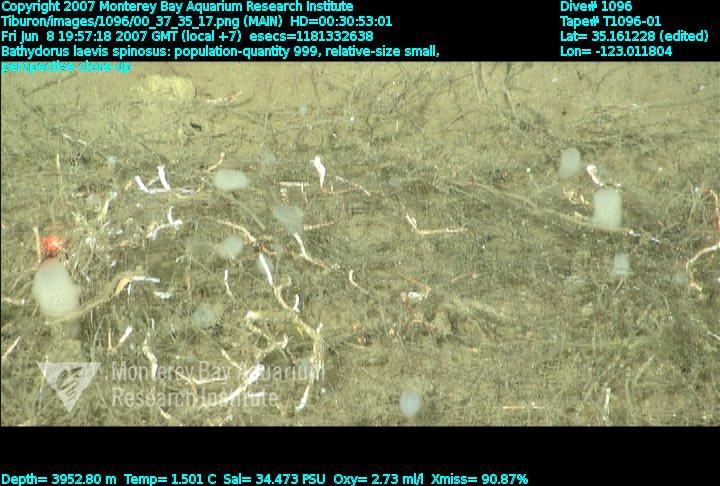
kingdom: Animalia
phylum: Porifera
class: Hexactinellida
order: Lyssacinosida
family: Rossellidae
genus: Bathydorus
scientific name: Bathydorus spinosus
